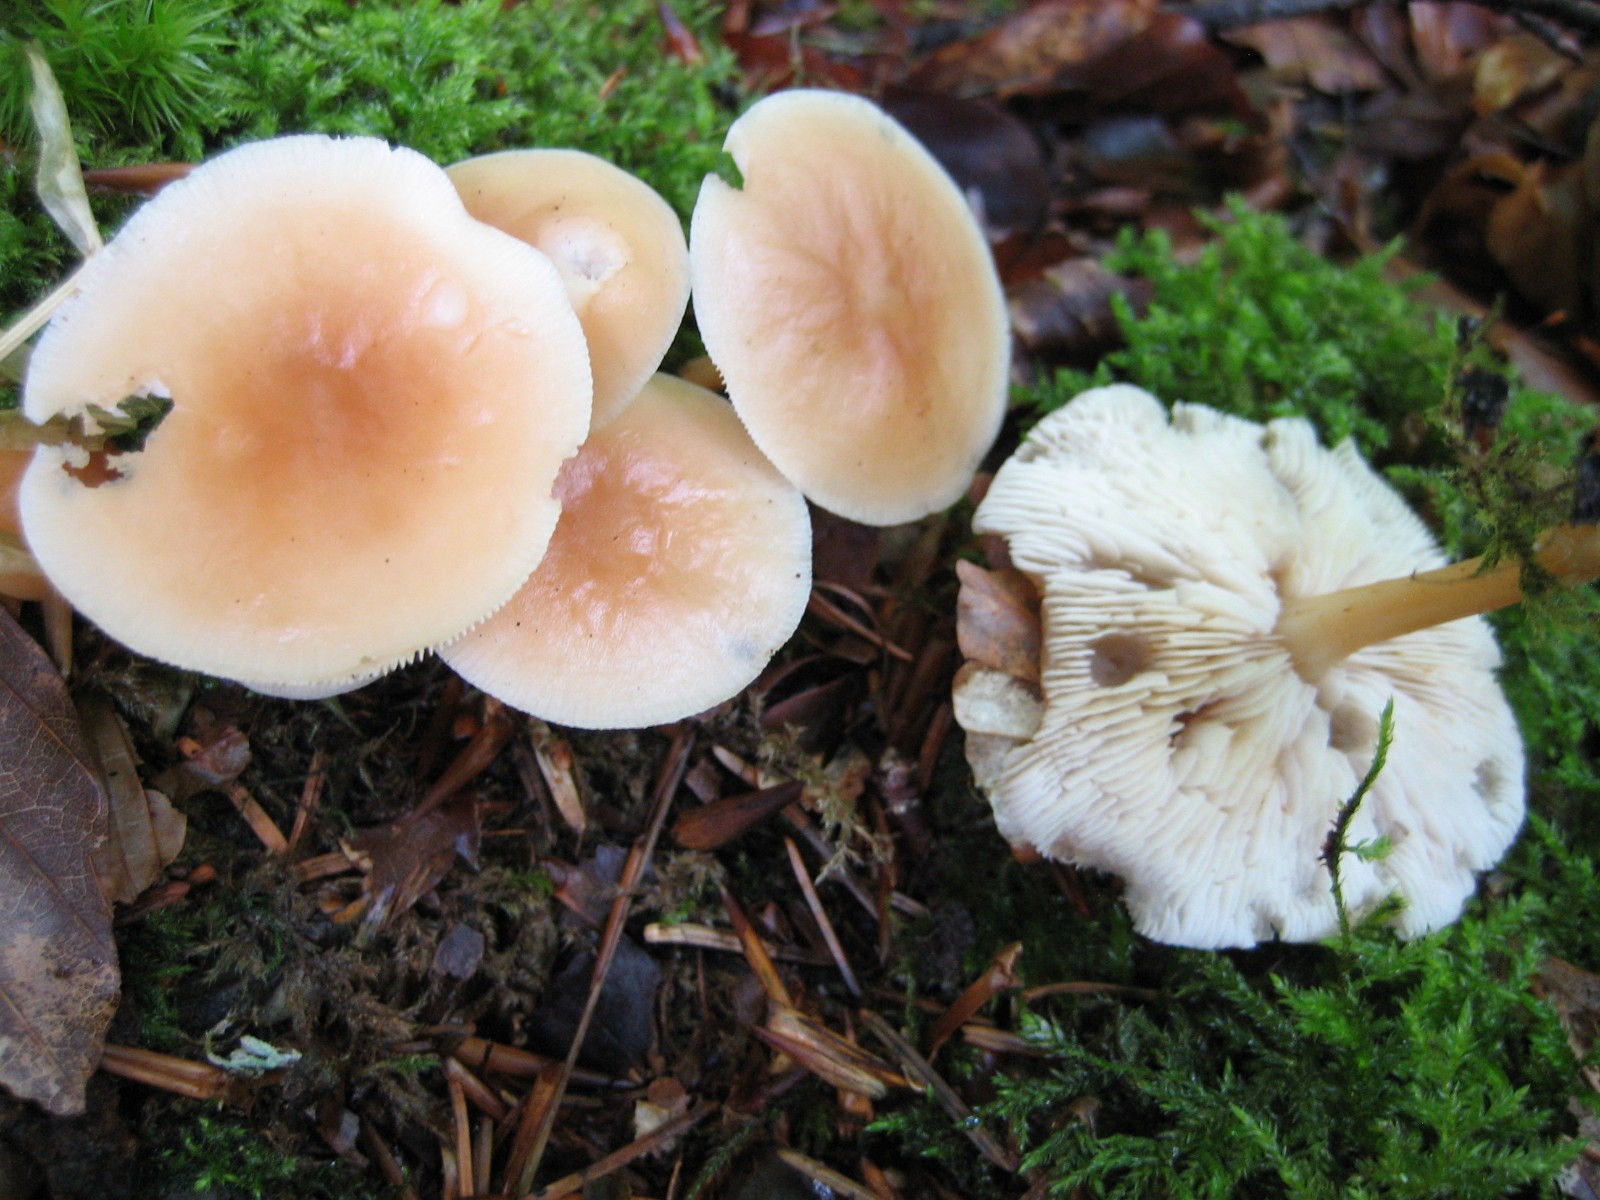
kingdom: Fungi
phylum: Basidiomycota
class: Agaricomycetes
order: Agaricales
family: Omphalotaceae
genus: Gymnopus
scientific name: Gymnopus dryophilus
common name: løv-fladhat
